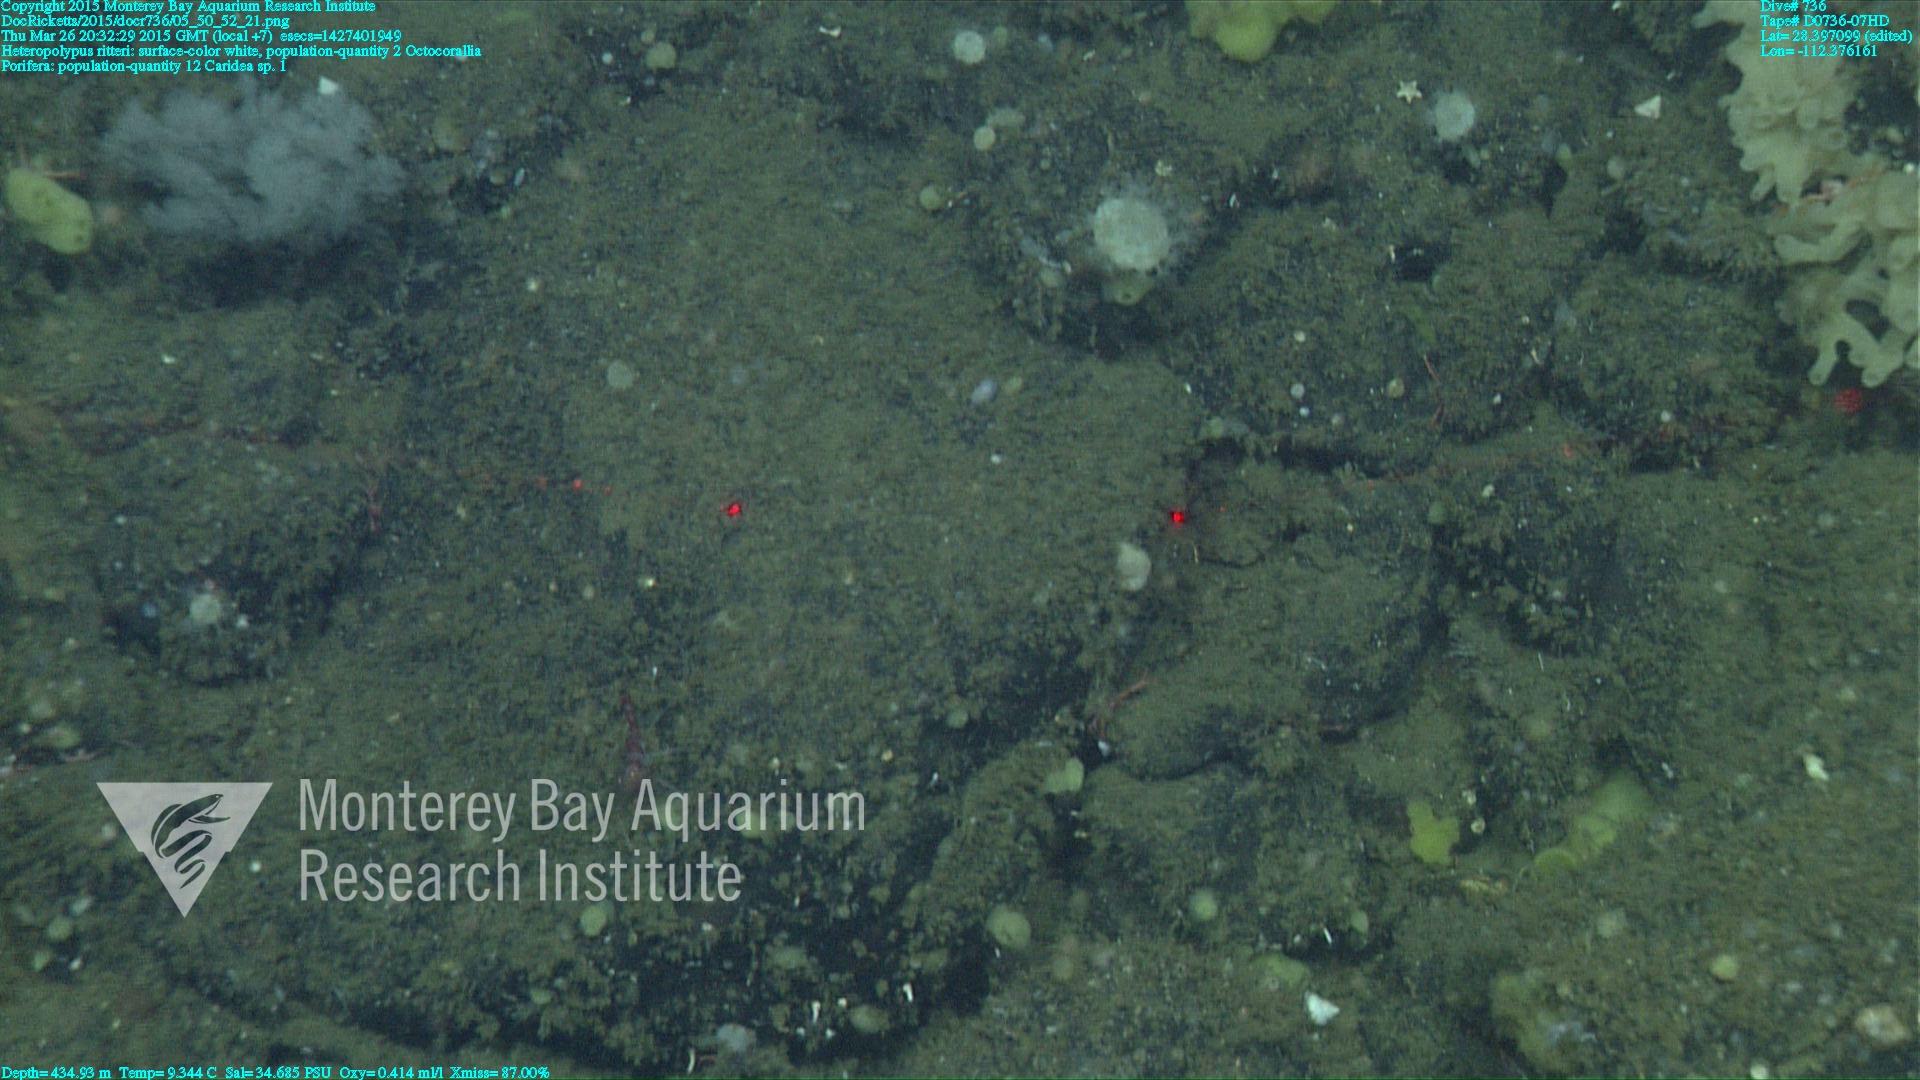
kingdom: Animalia
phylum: Cnidaria
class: Anthozoa
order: Scleralcyonacea
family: Coralliidae
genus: Heteropolypus
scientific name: Heteropolypus ritteri
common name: Ritter's soft coral
